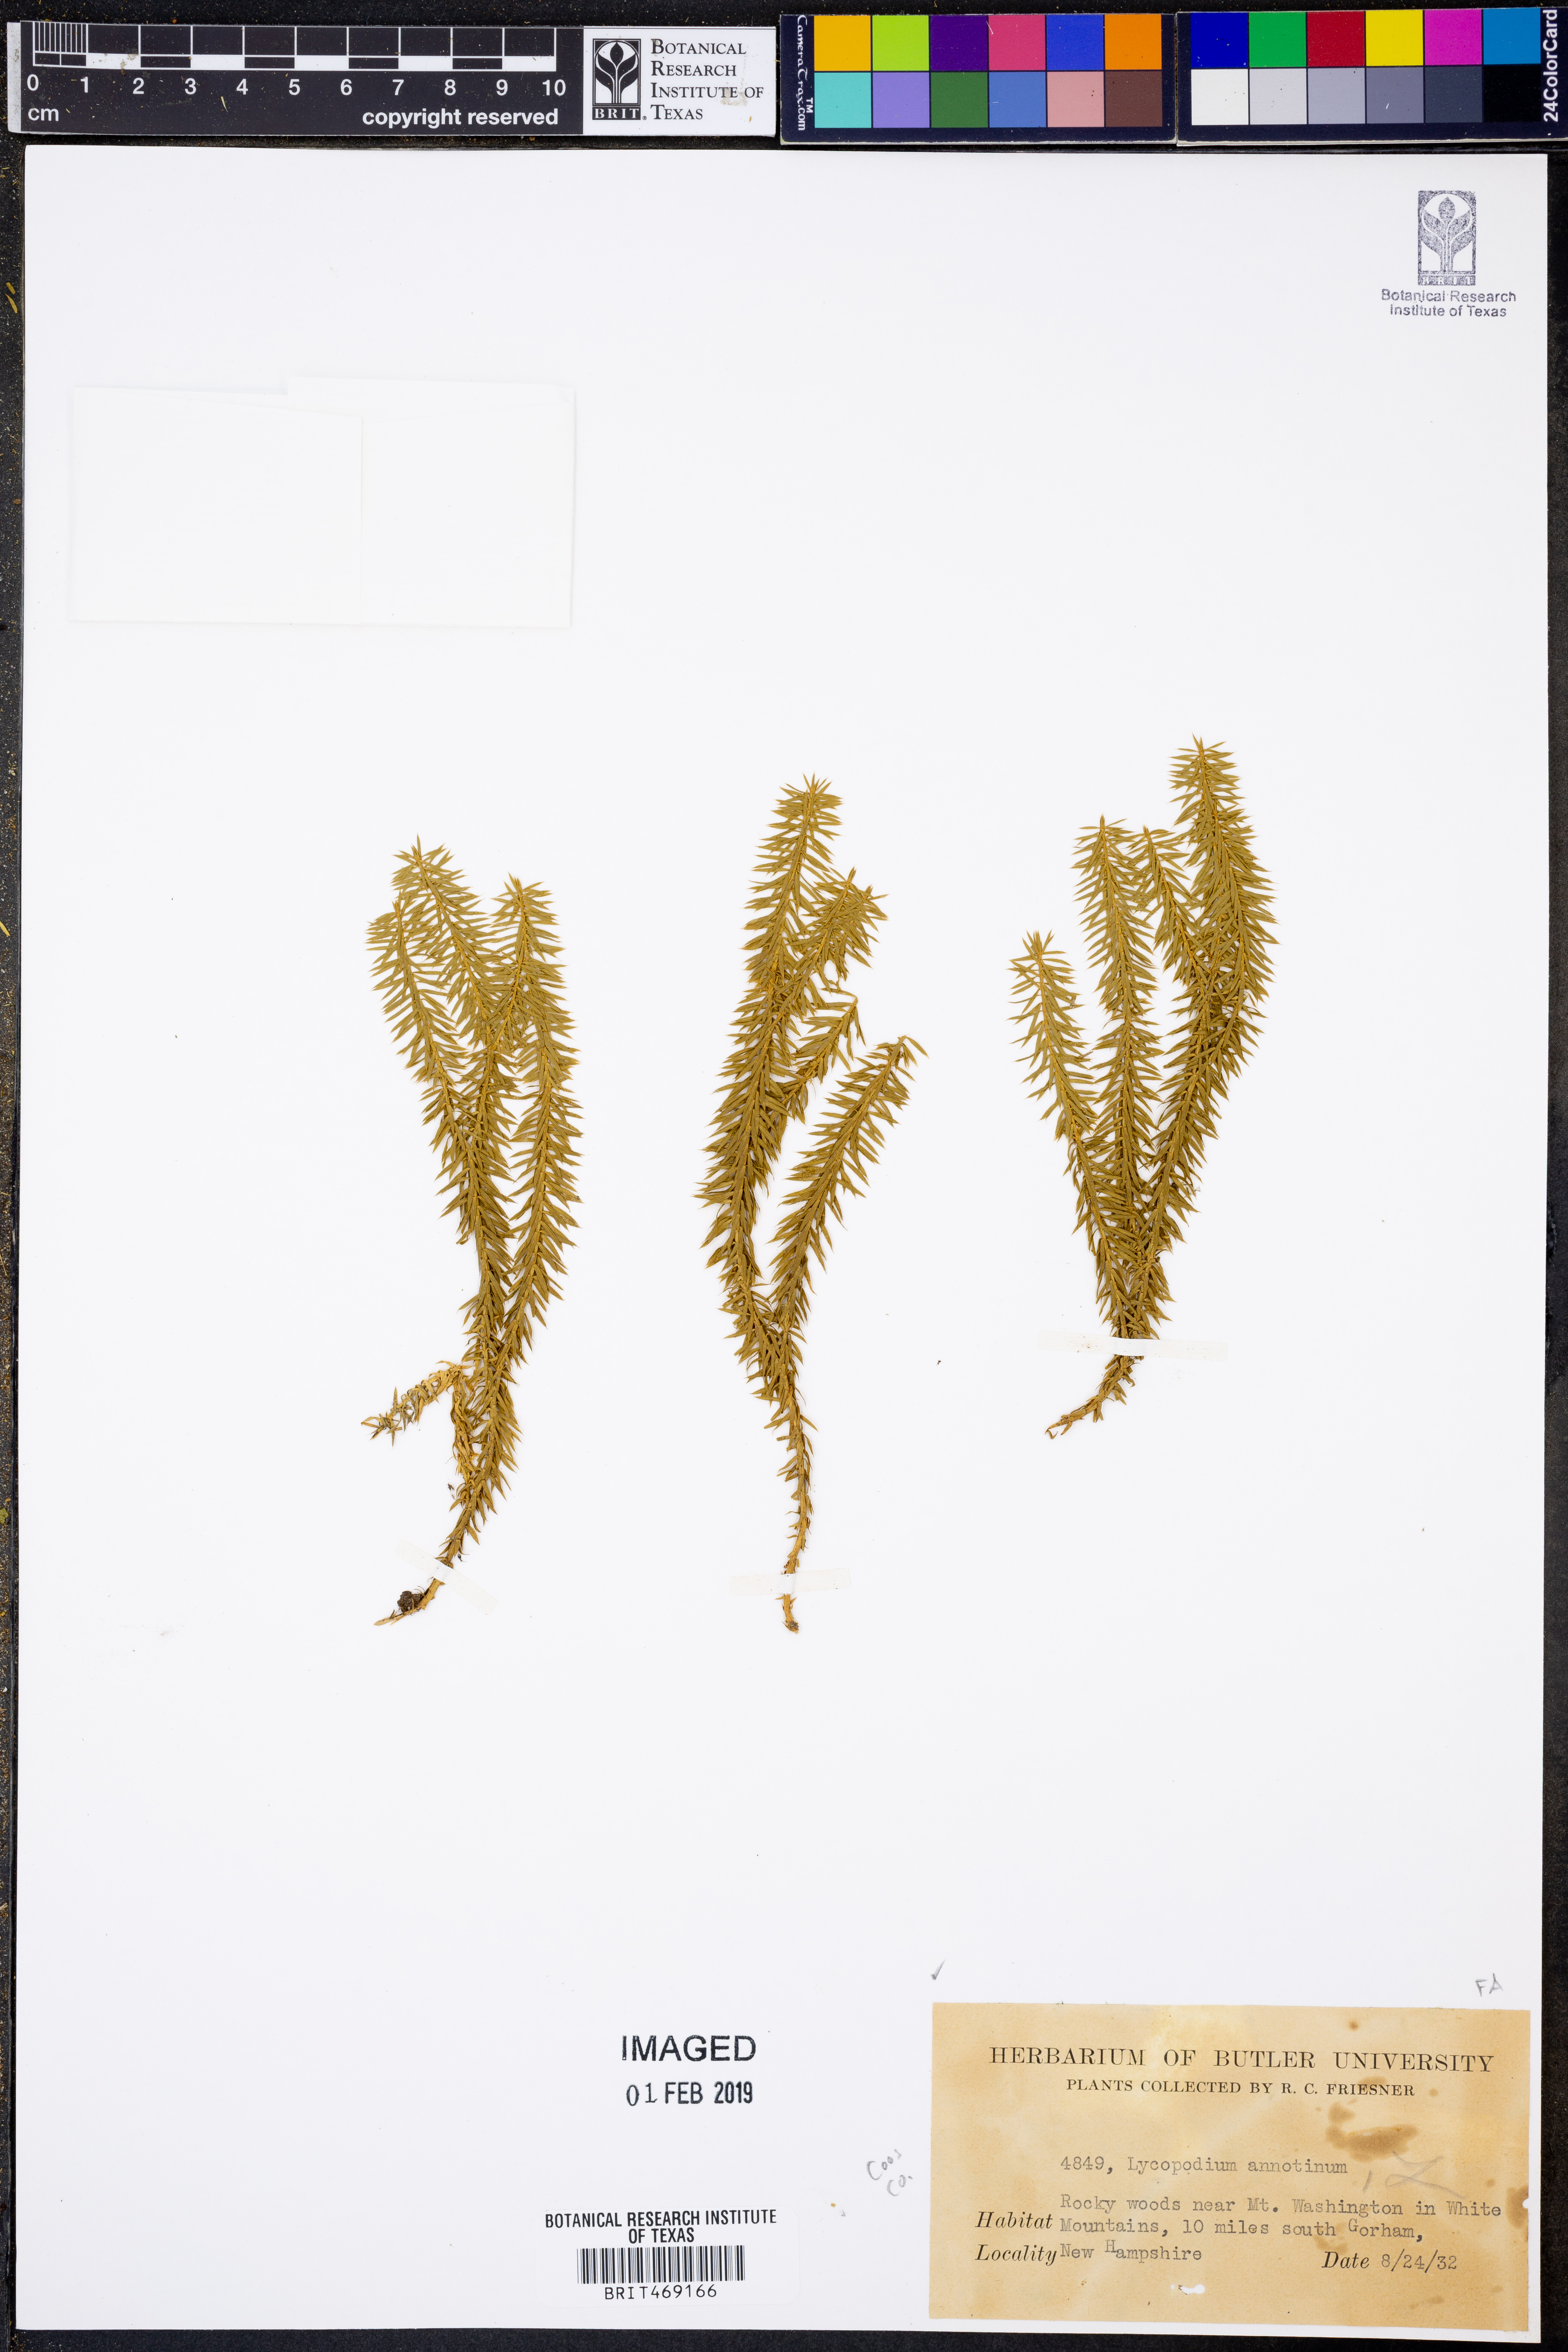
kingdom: Plantae
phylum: Tracheophyta
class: Lycopodiopsida
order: Lycopodiales
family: Lycopodiaceae
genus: Spinulum
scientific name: Spinulum annotinum
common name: Interrupted club-moss
